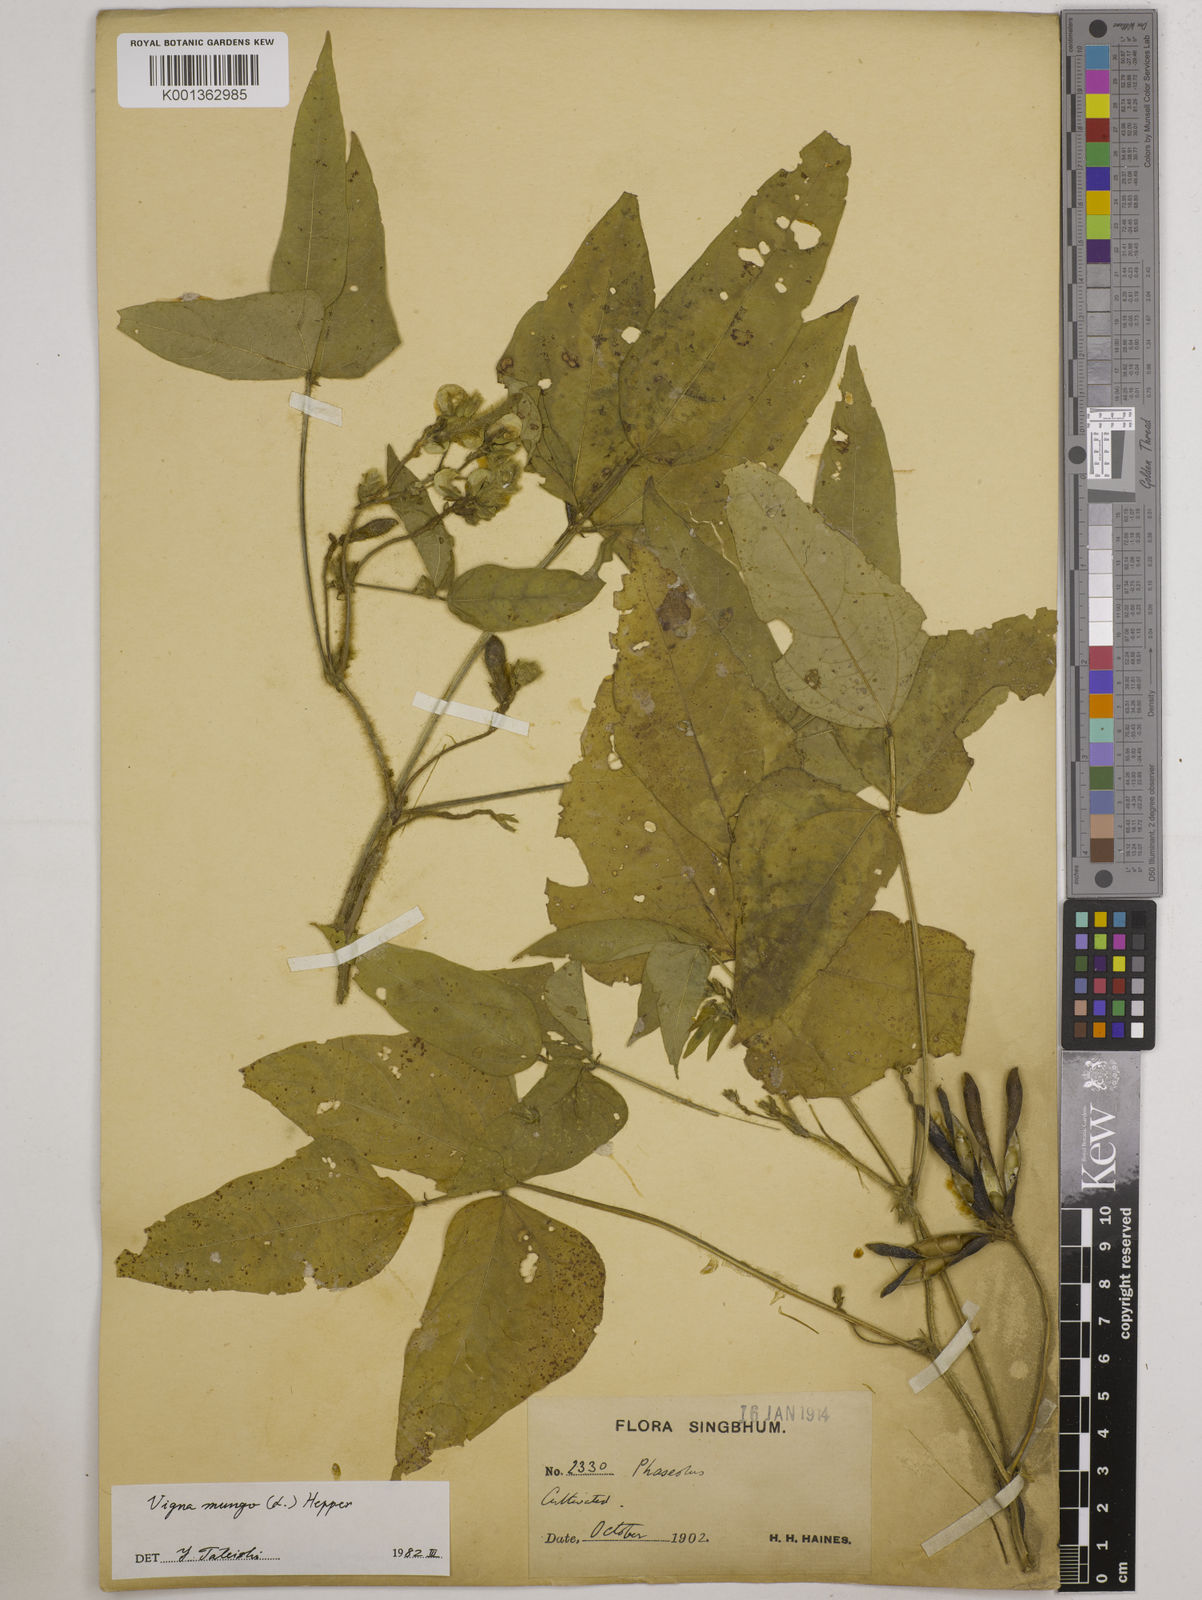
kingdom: Plantae
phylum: Tracheophyta
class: Magnoliopsida
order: Fabales
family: Fabaceae
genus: Vigna
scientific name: Vigna mungo
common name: Black gram
